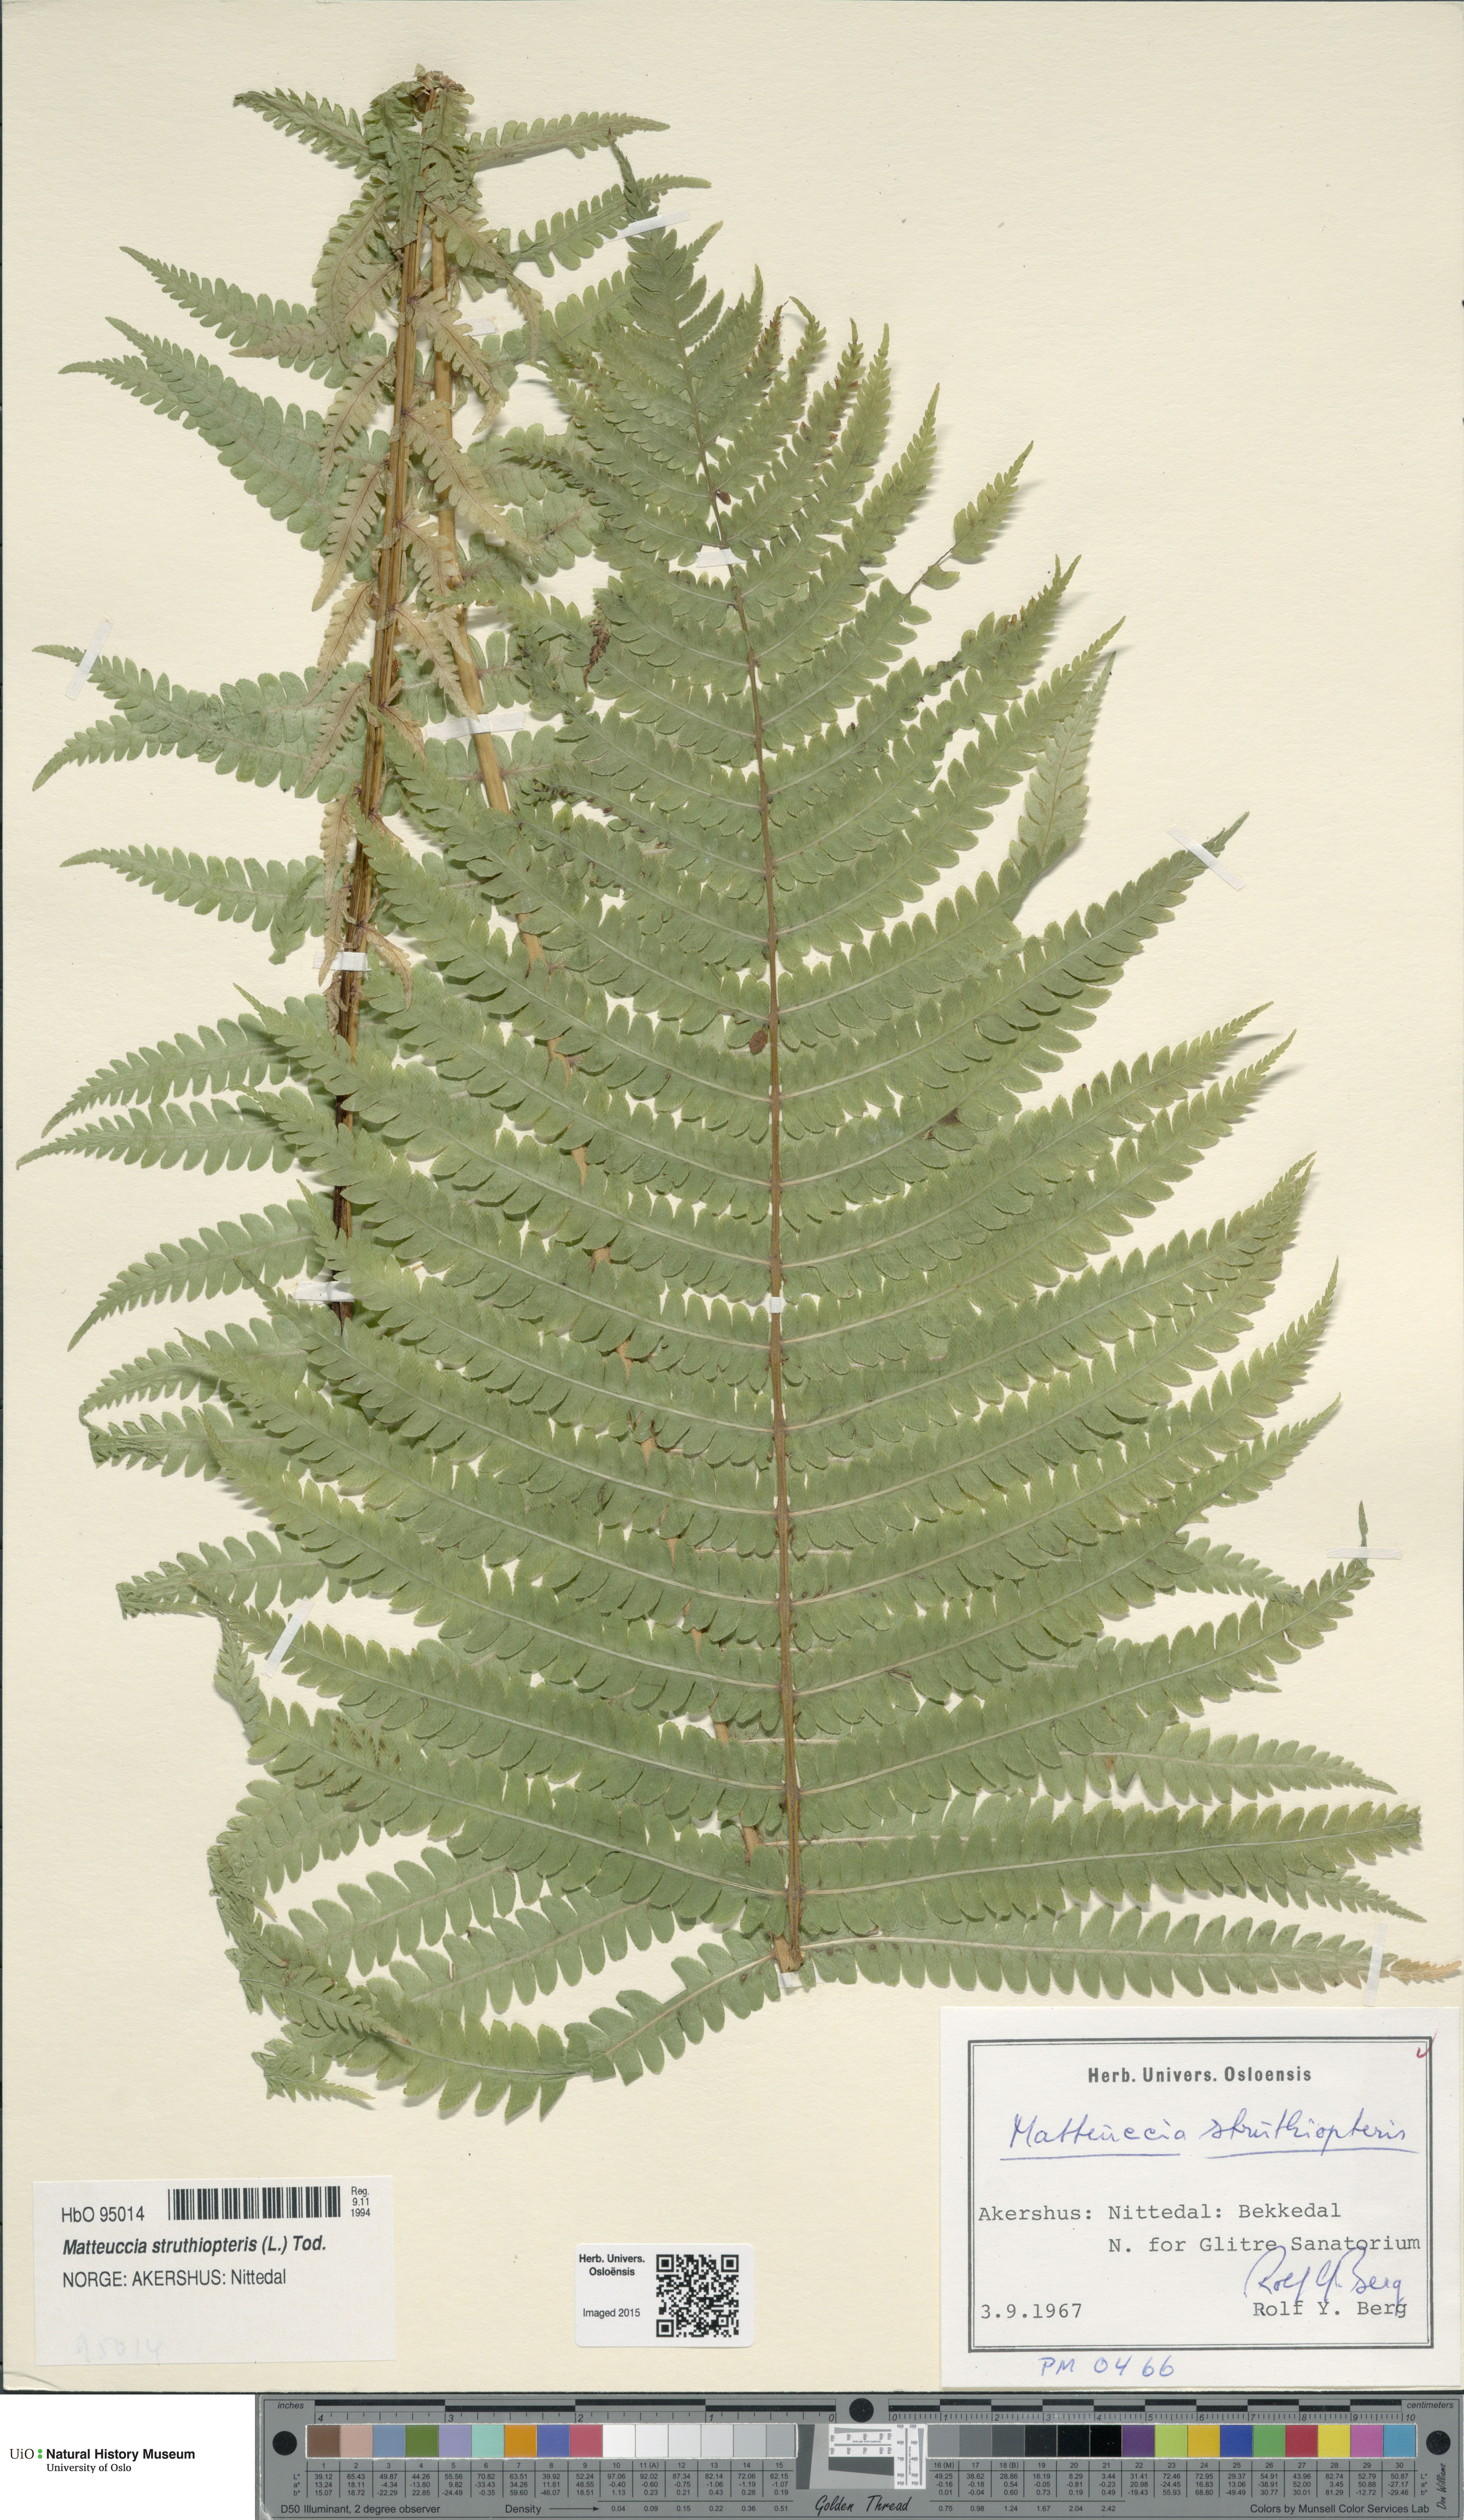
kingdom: Plantae
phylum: Tracheophyta
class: Polypodiopsida
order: Polypodiales
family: Onocleaceae
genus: Matteuccia
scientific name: Matteuccia struthiopteris
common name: Ostrich fern
